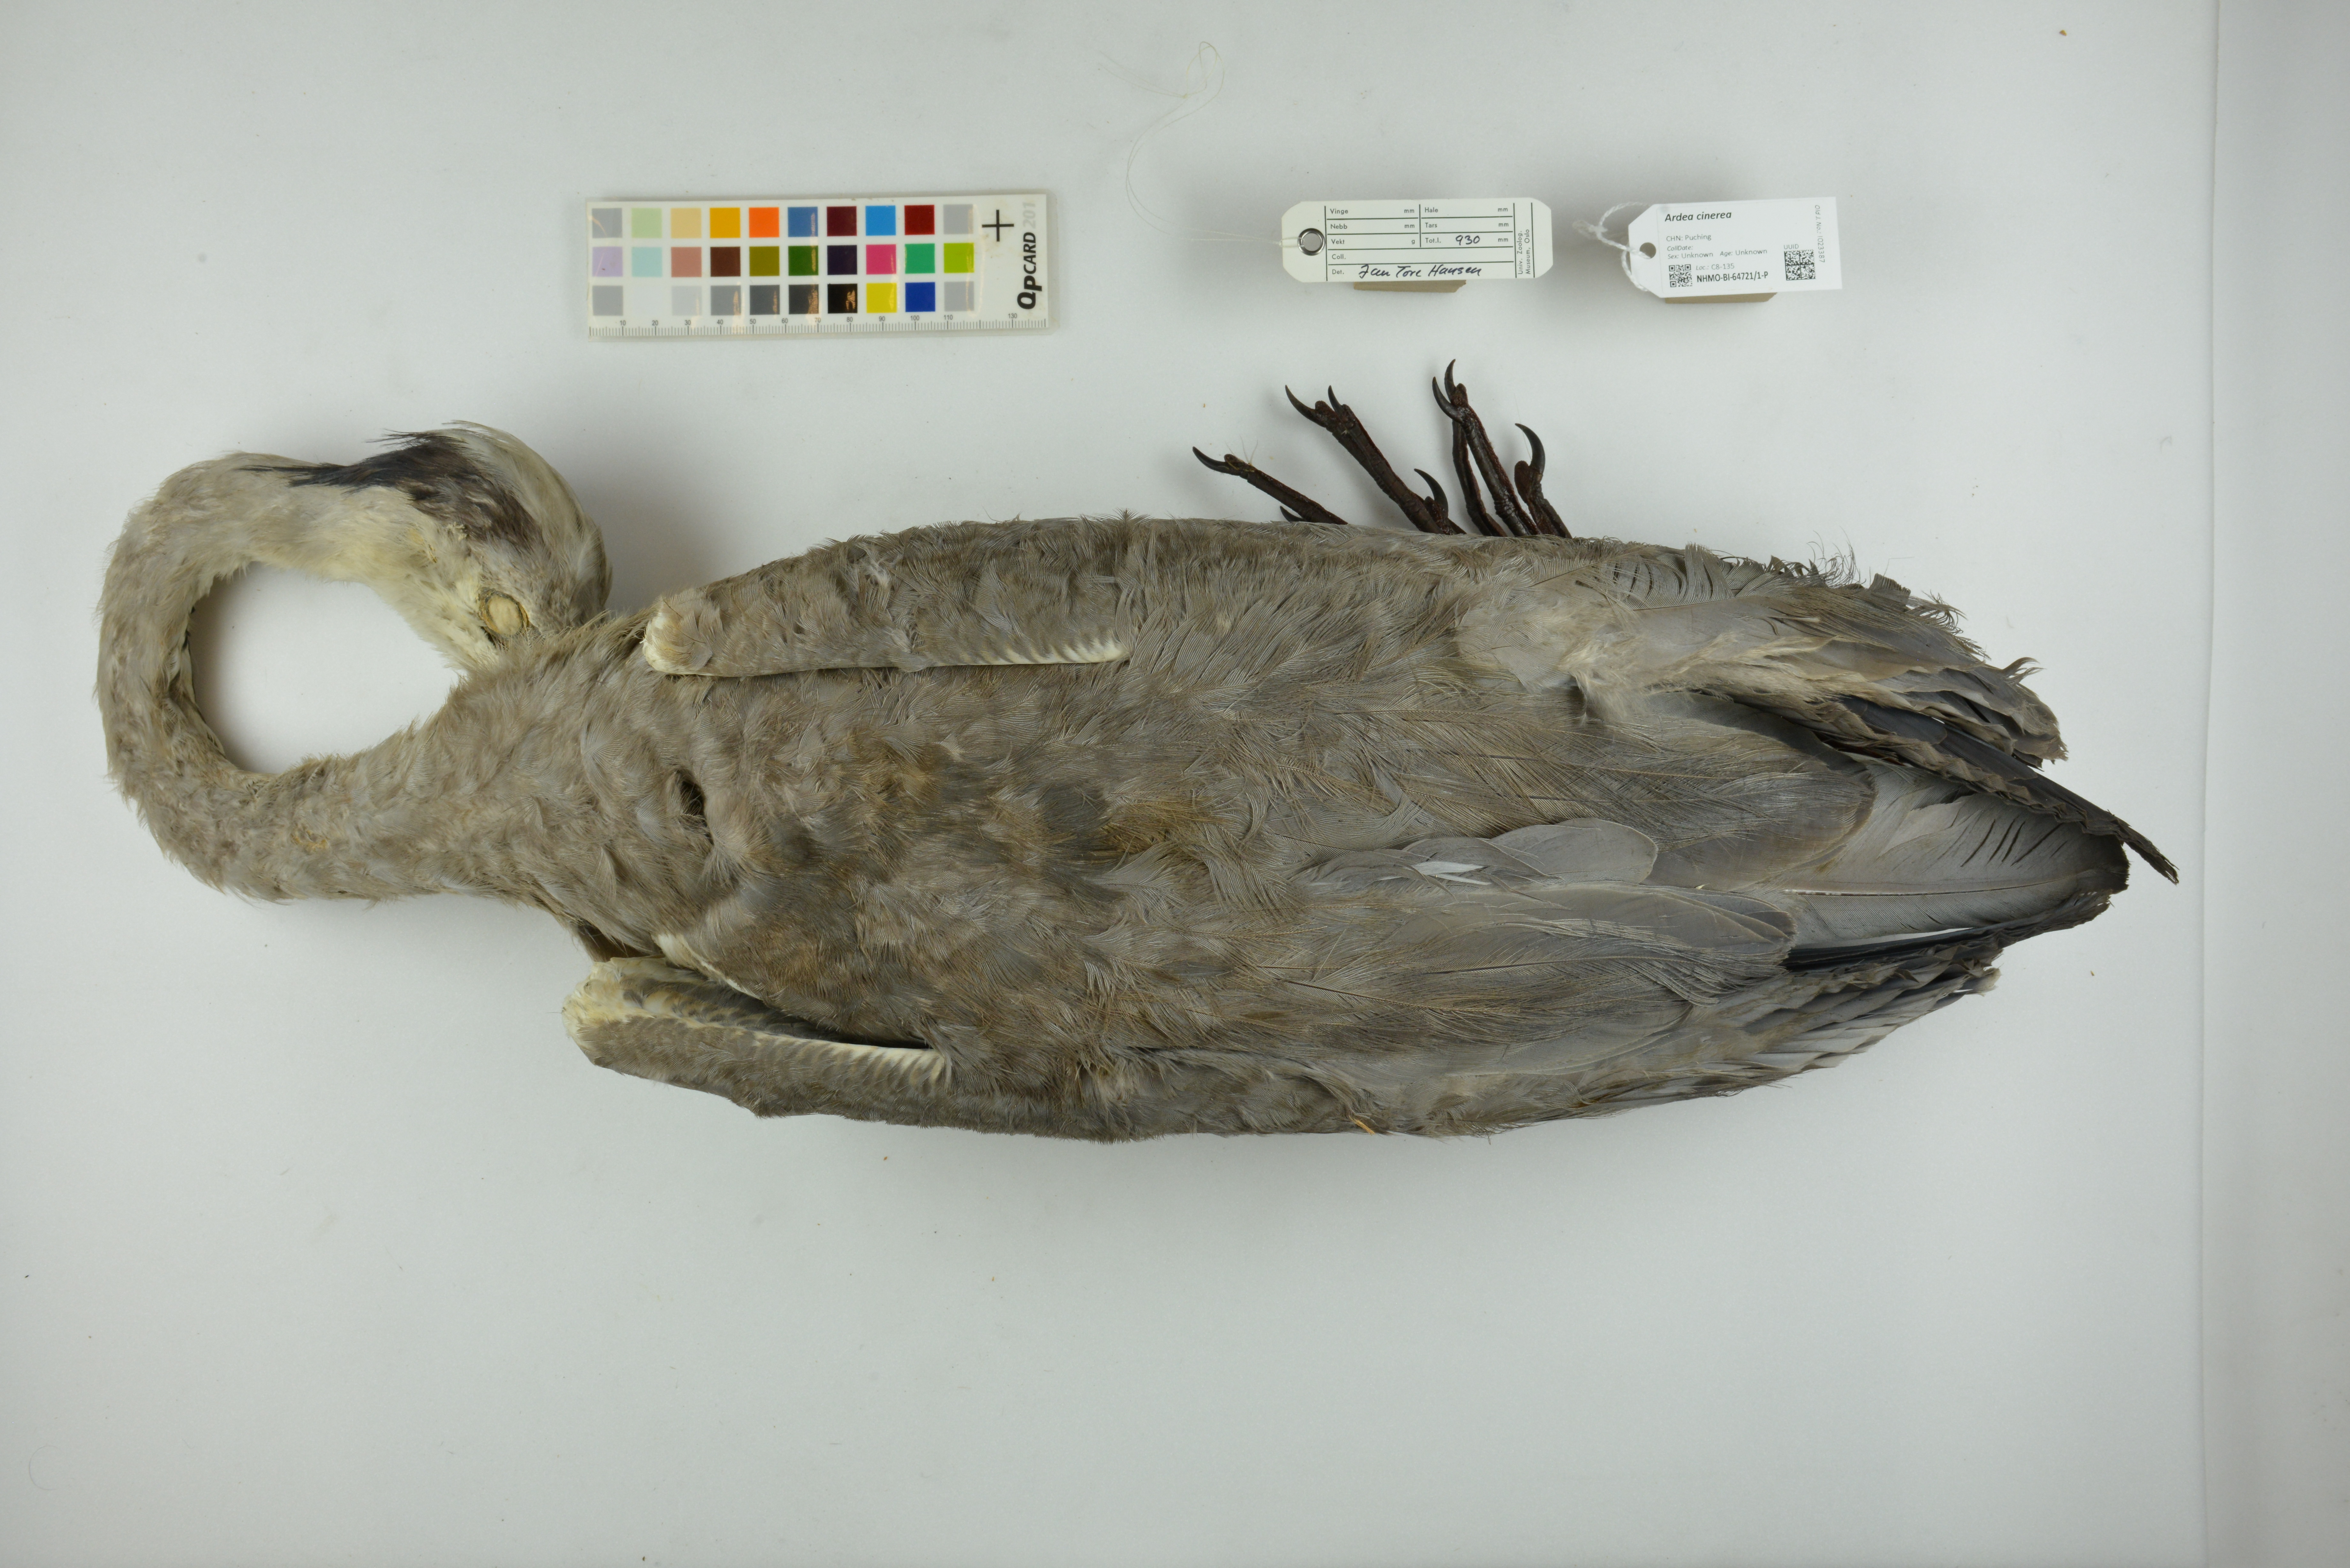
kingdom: Animalia
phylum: Chordata
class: Aves
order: Pelecaniformes
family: Ardeidae
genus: Ardea
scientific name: Ardea cinerea
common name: Grey heron
